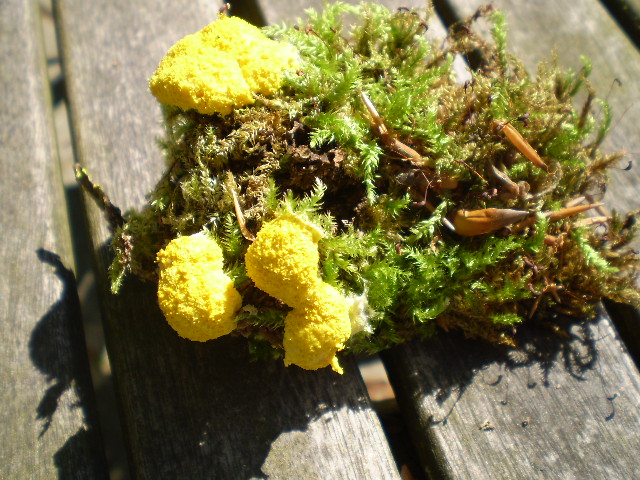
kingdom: Protozoa
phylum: Mycetozoa
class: Myxomycetes
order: Physarales
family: Physaraceae
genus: Fuligo
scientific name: Fuligo septica
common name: gul troldsmør
